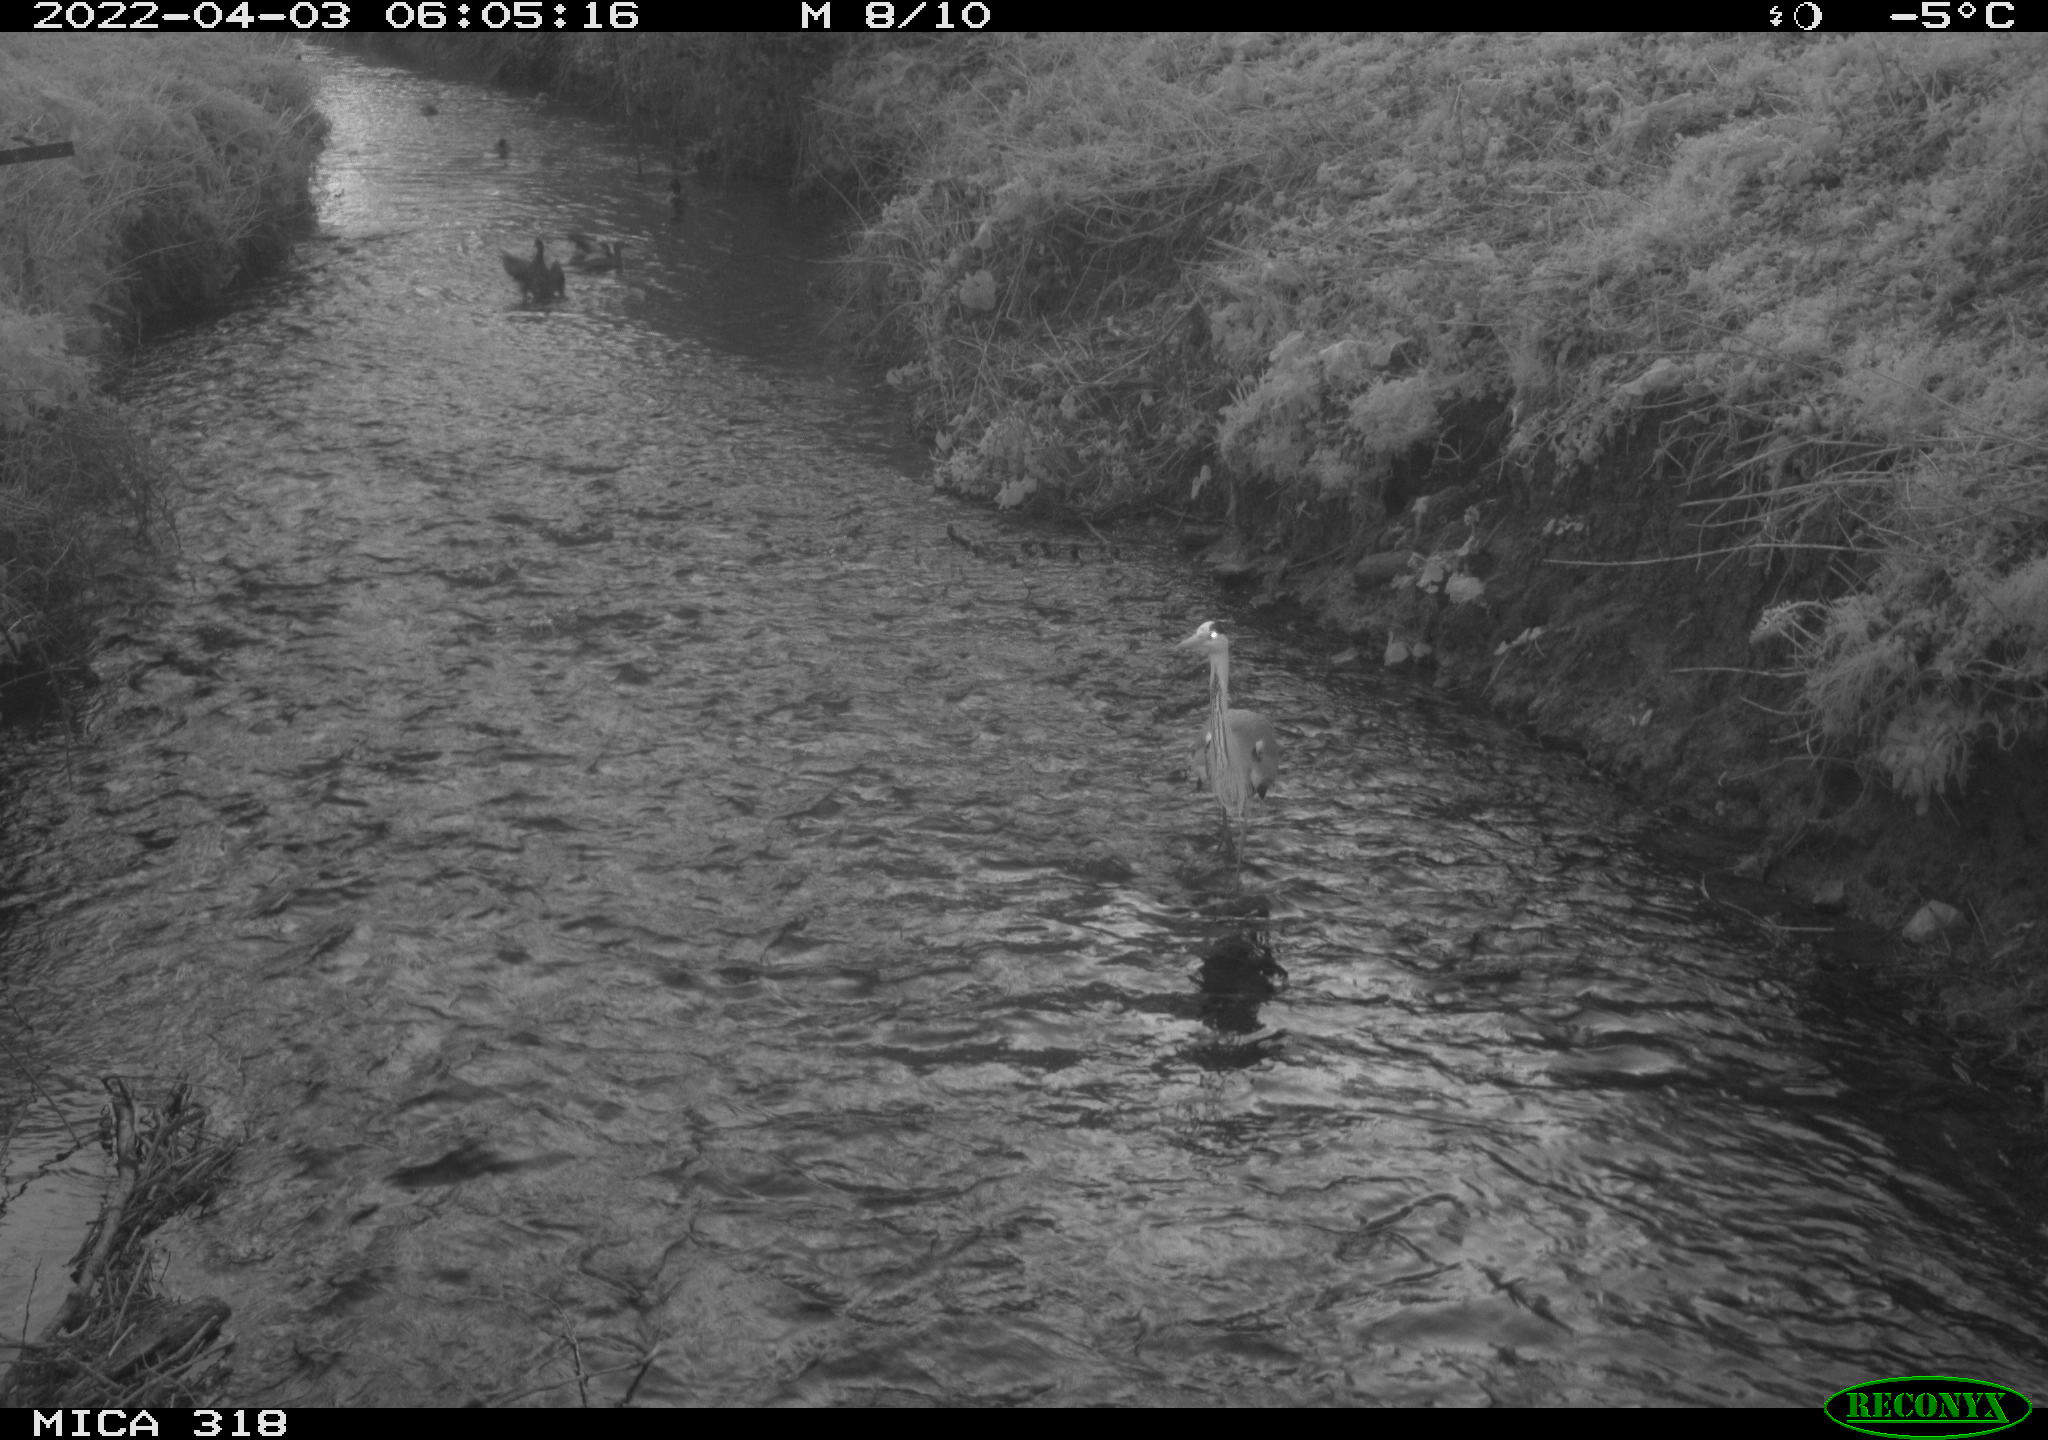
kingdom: Animalia
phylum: Chordata
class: Aves
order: Pelecaniformes
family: Ardeidae
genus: Ardea
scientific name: Ardea
